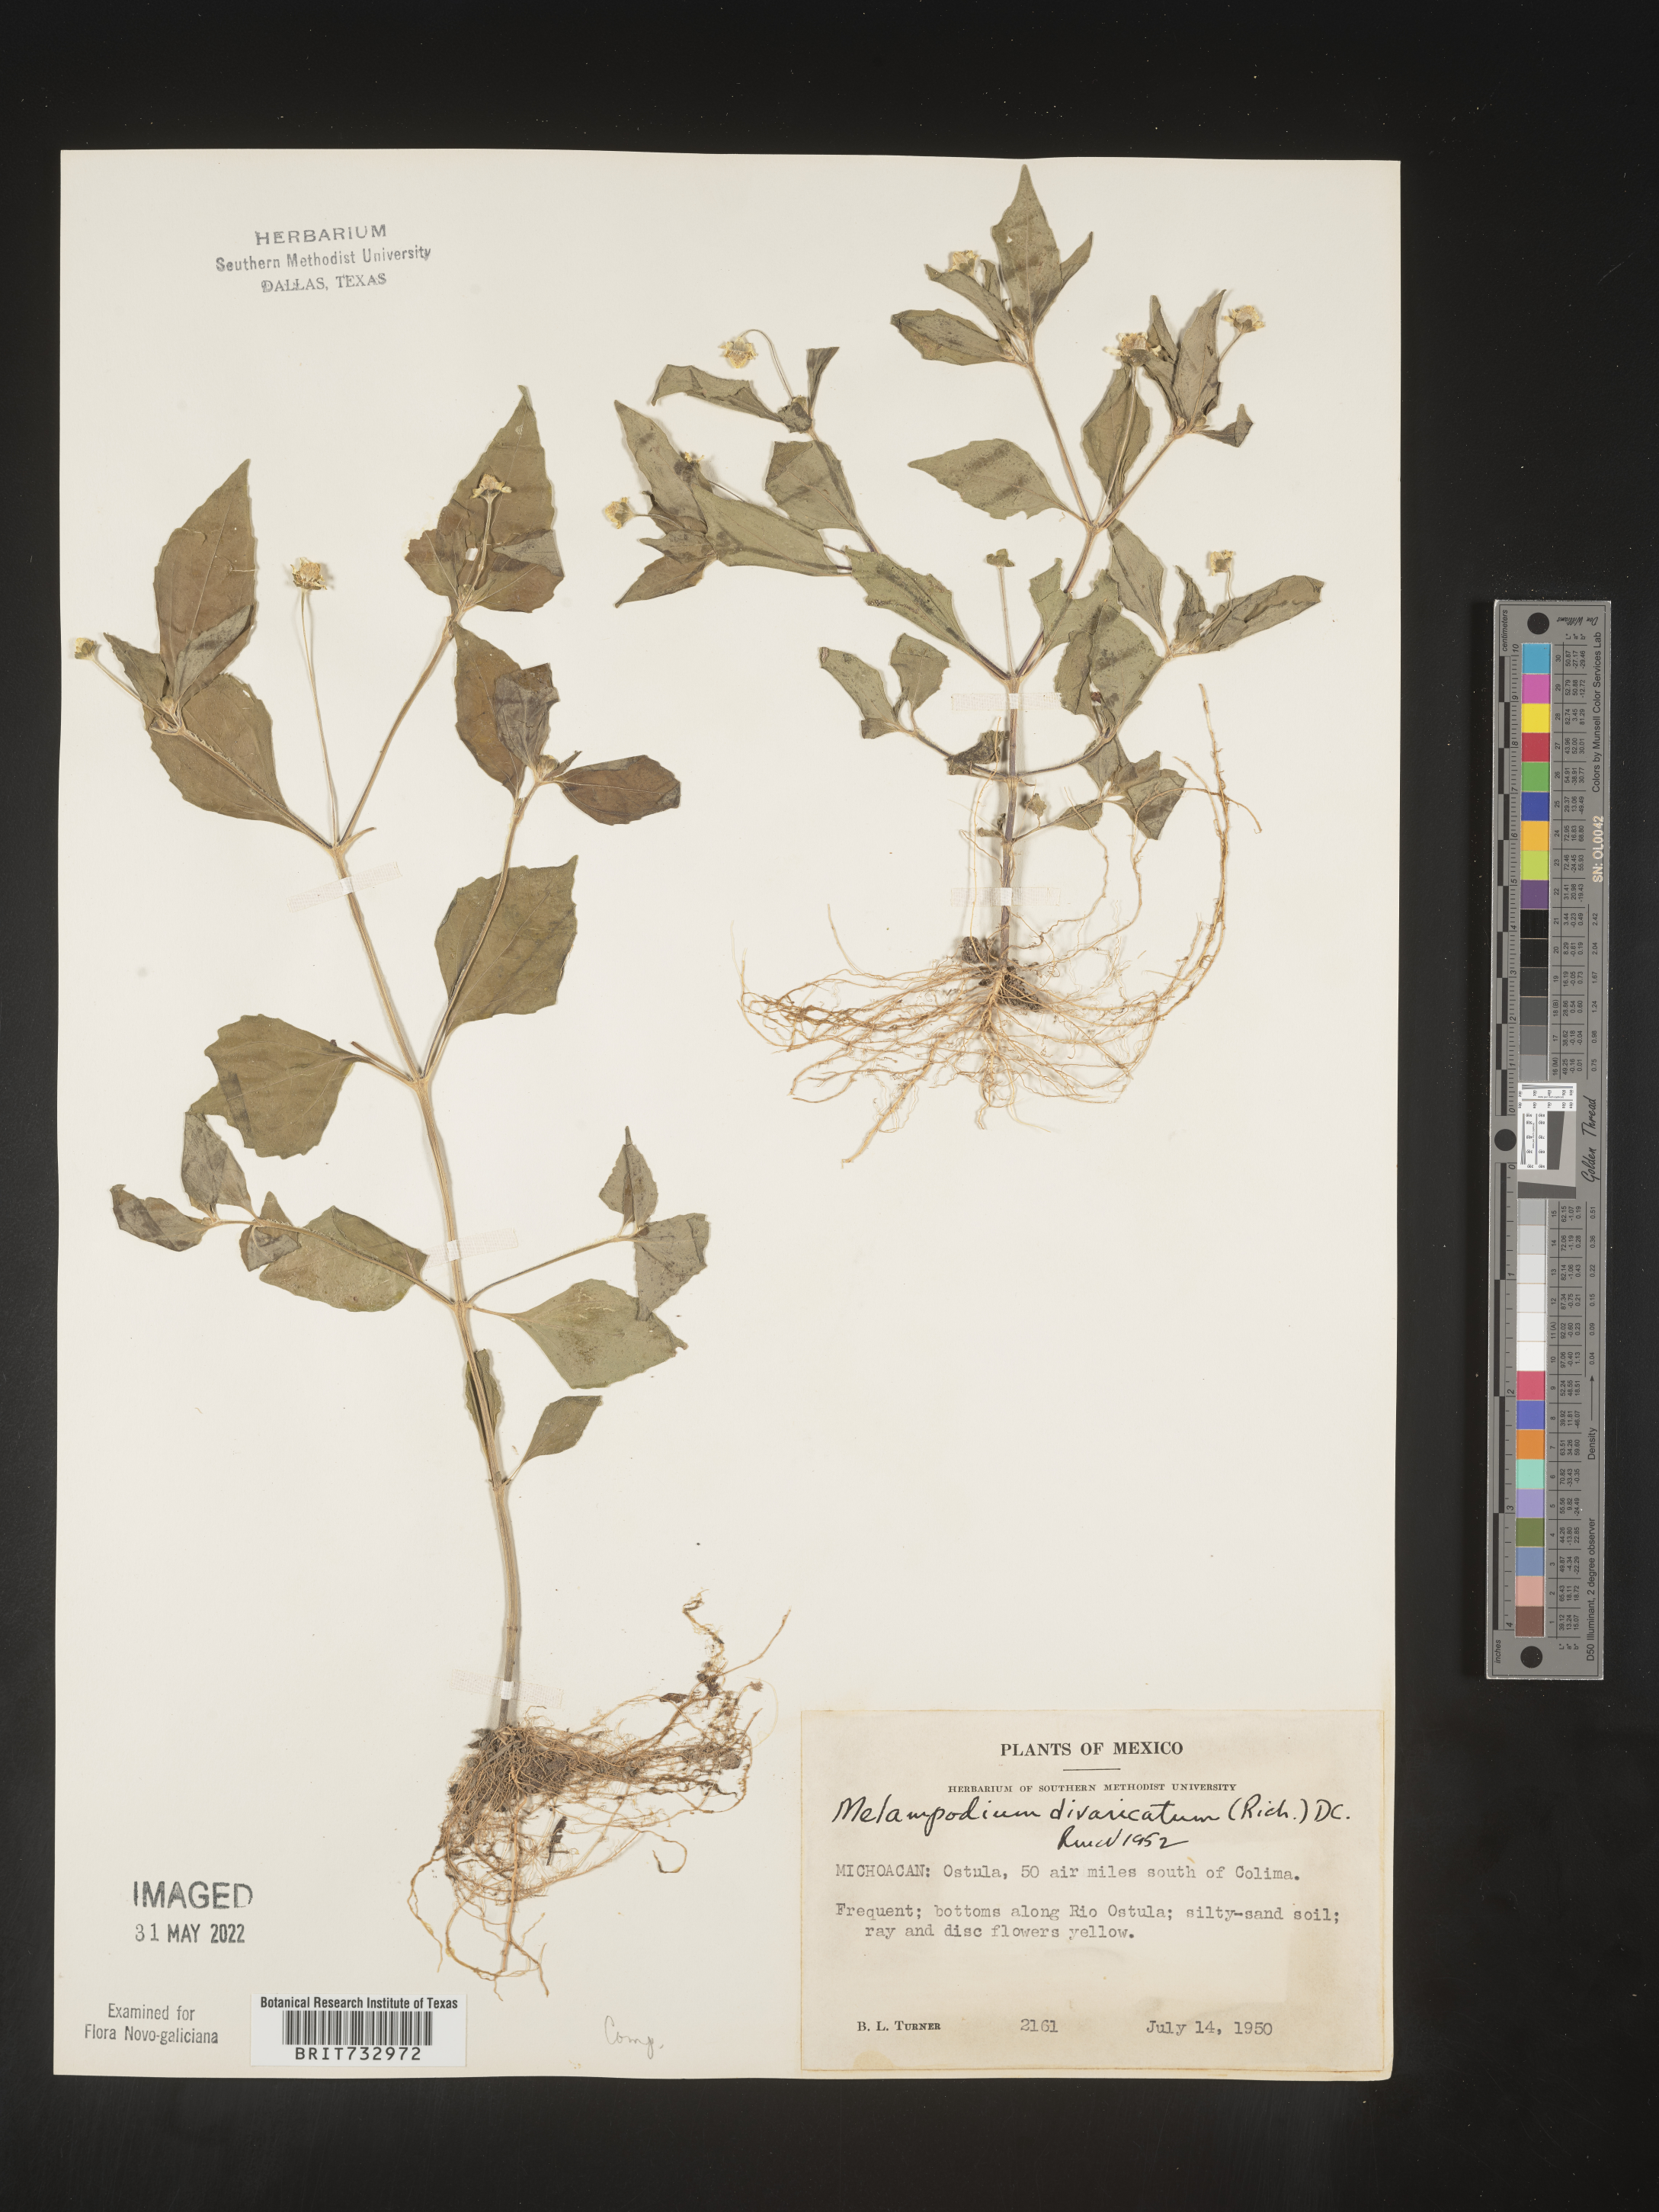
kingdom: Plantae
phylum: Tracheophyta
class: Magnoliopsida
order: Asterales
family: Asteraceae
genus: Melampodium
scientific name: Melampodium
